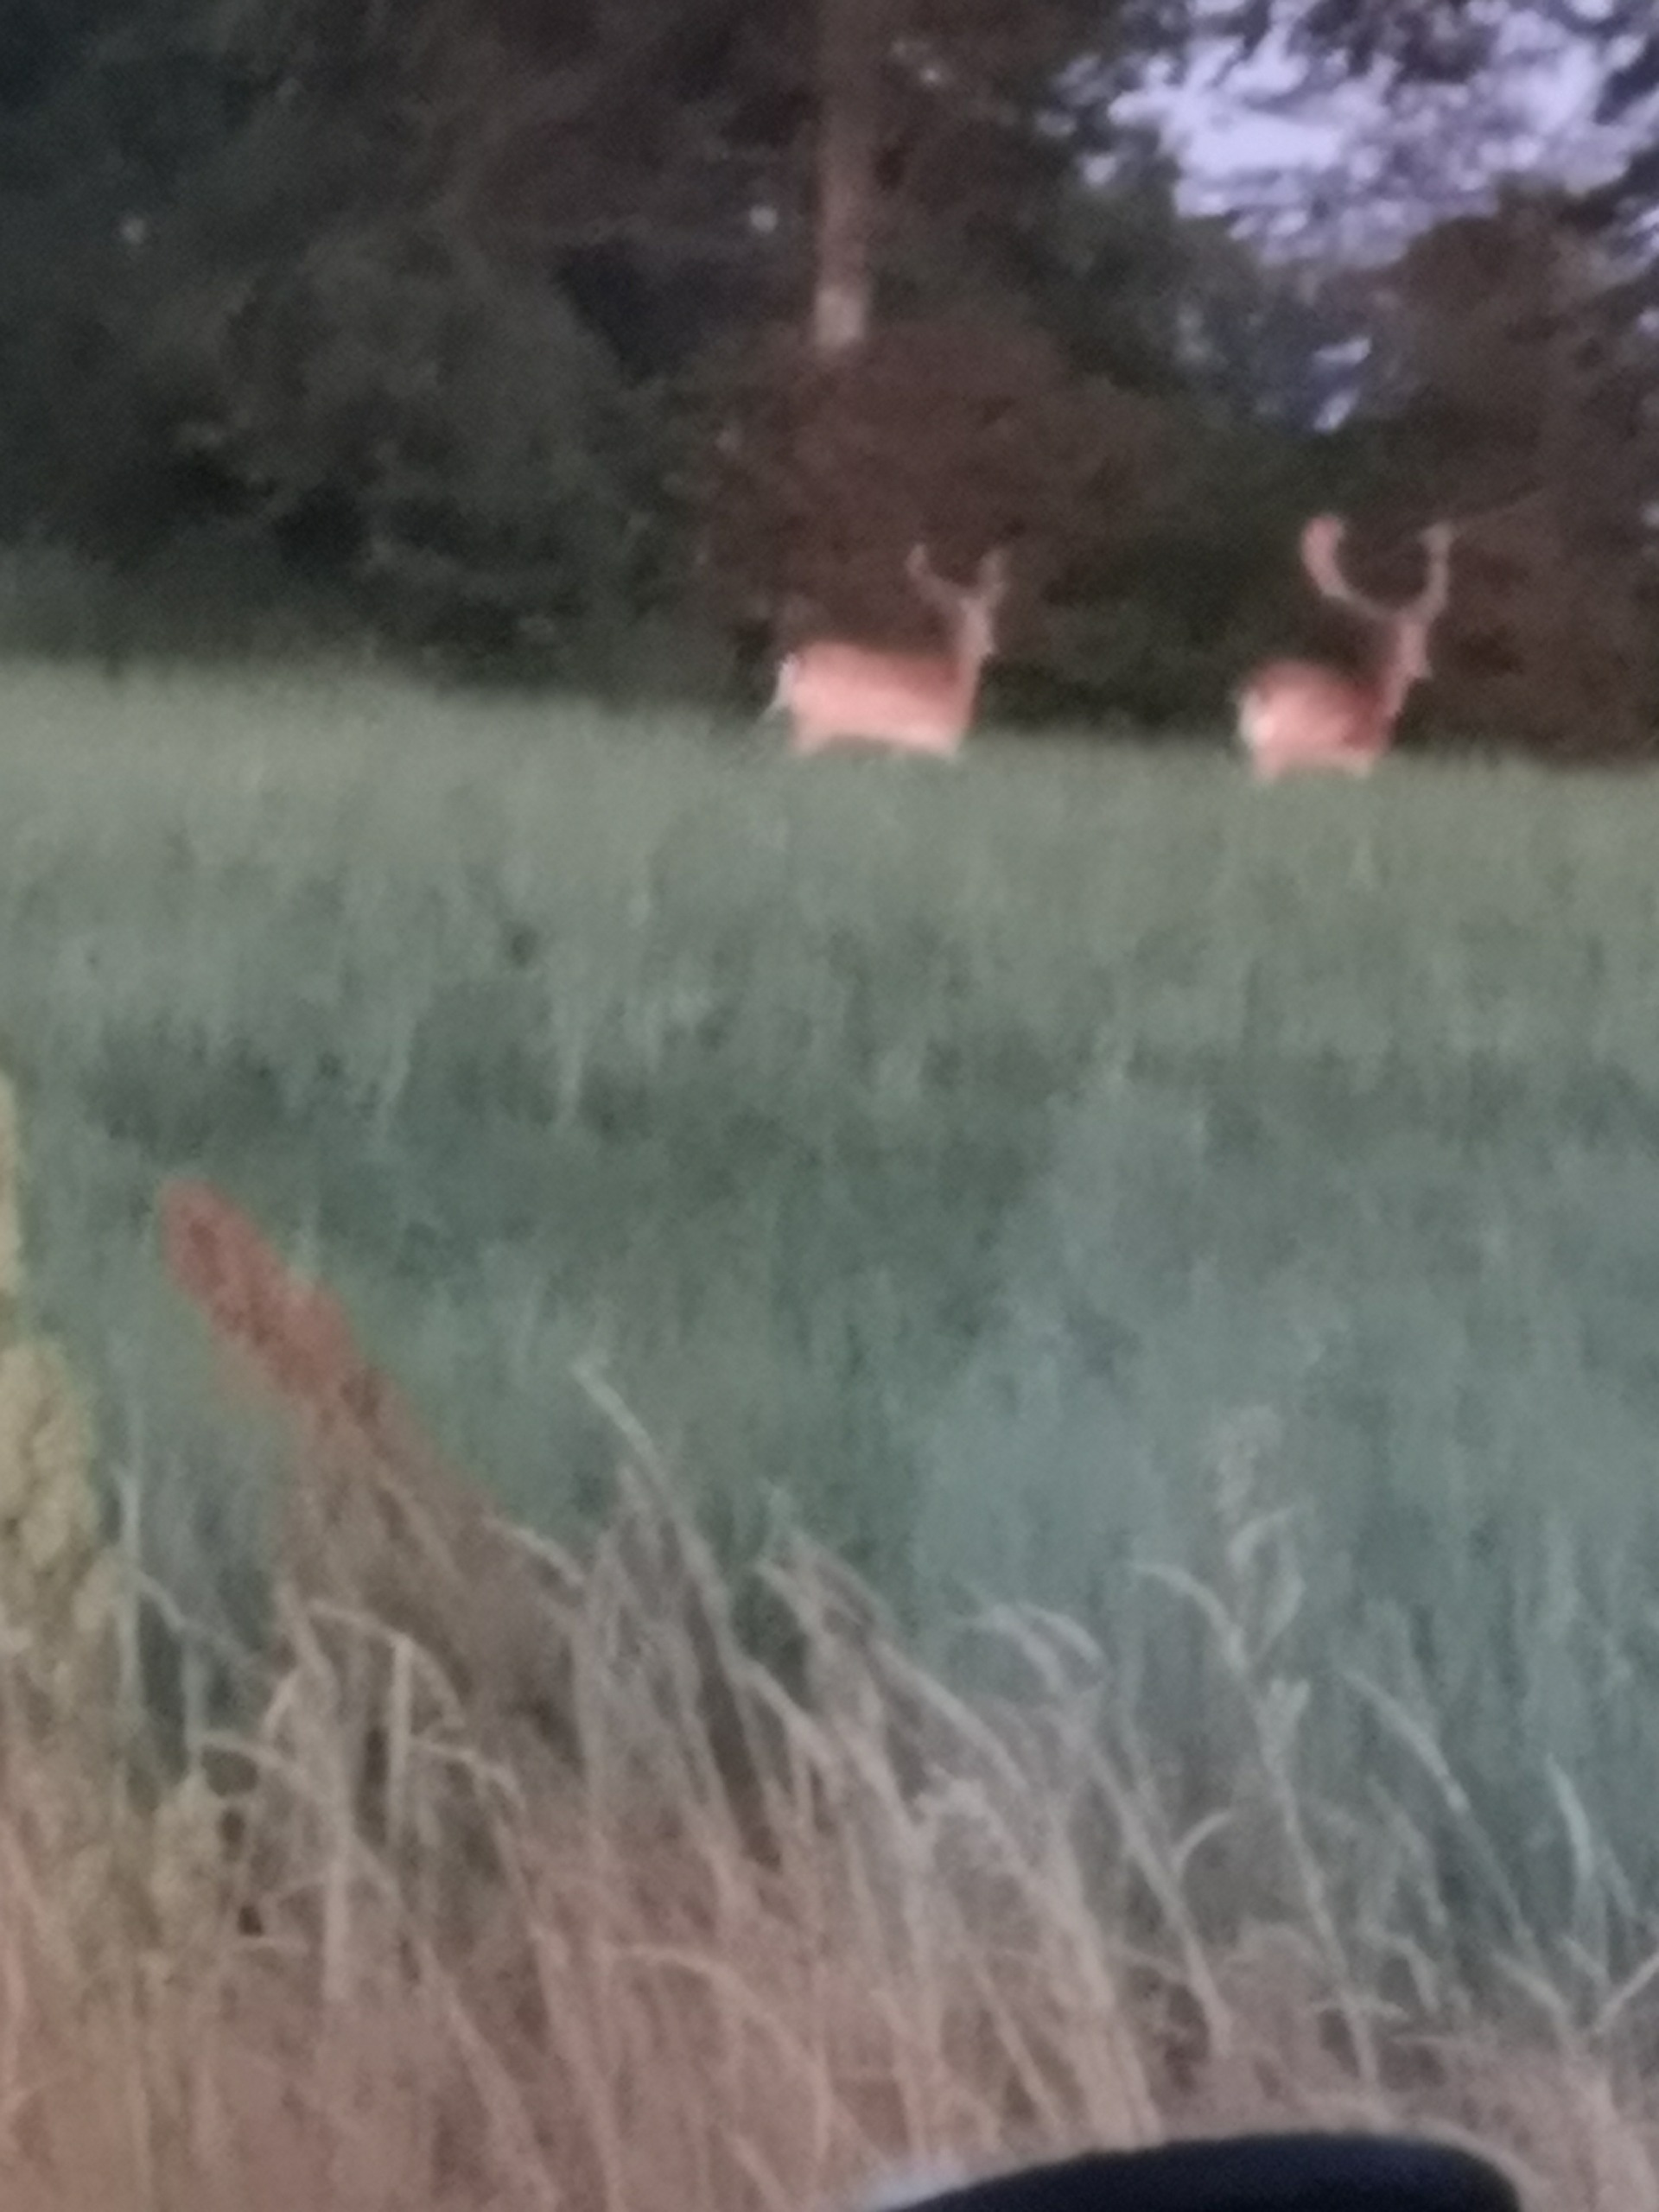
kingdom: Animalia
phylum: Chordata
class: Mammalia
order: Artiodactyla
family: Cervidae
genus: Dama
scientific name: Dama dama
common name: Dådyr
